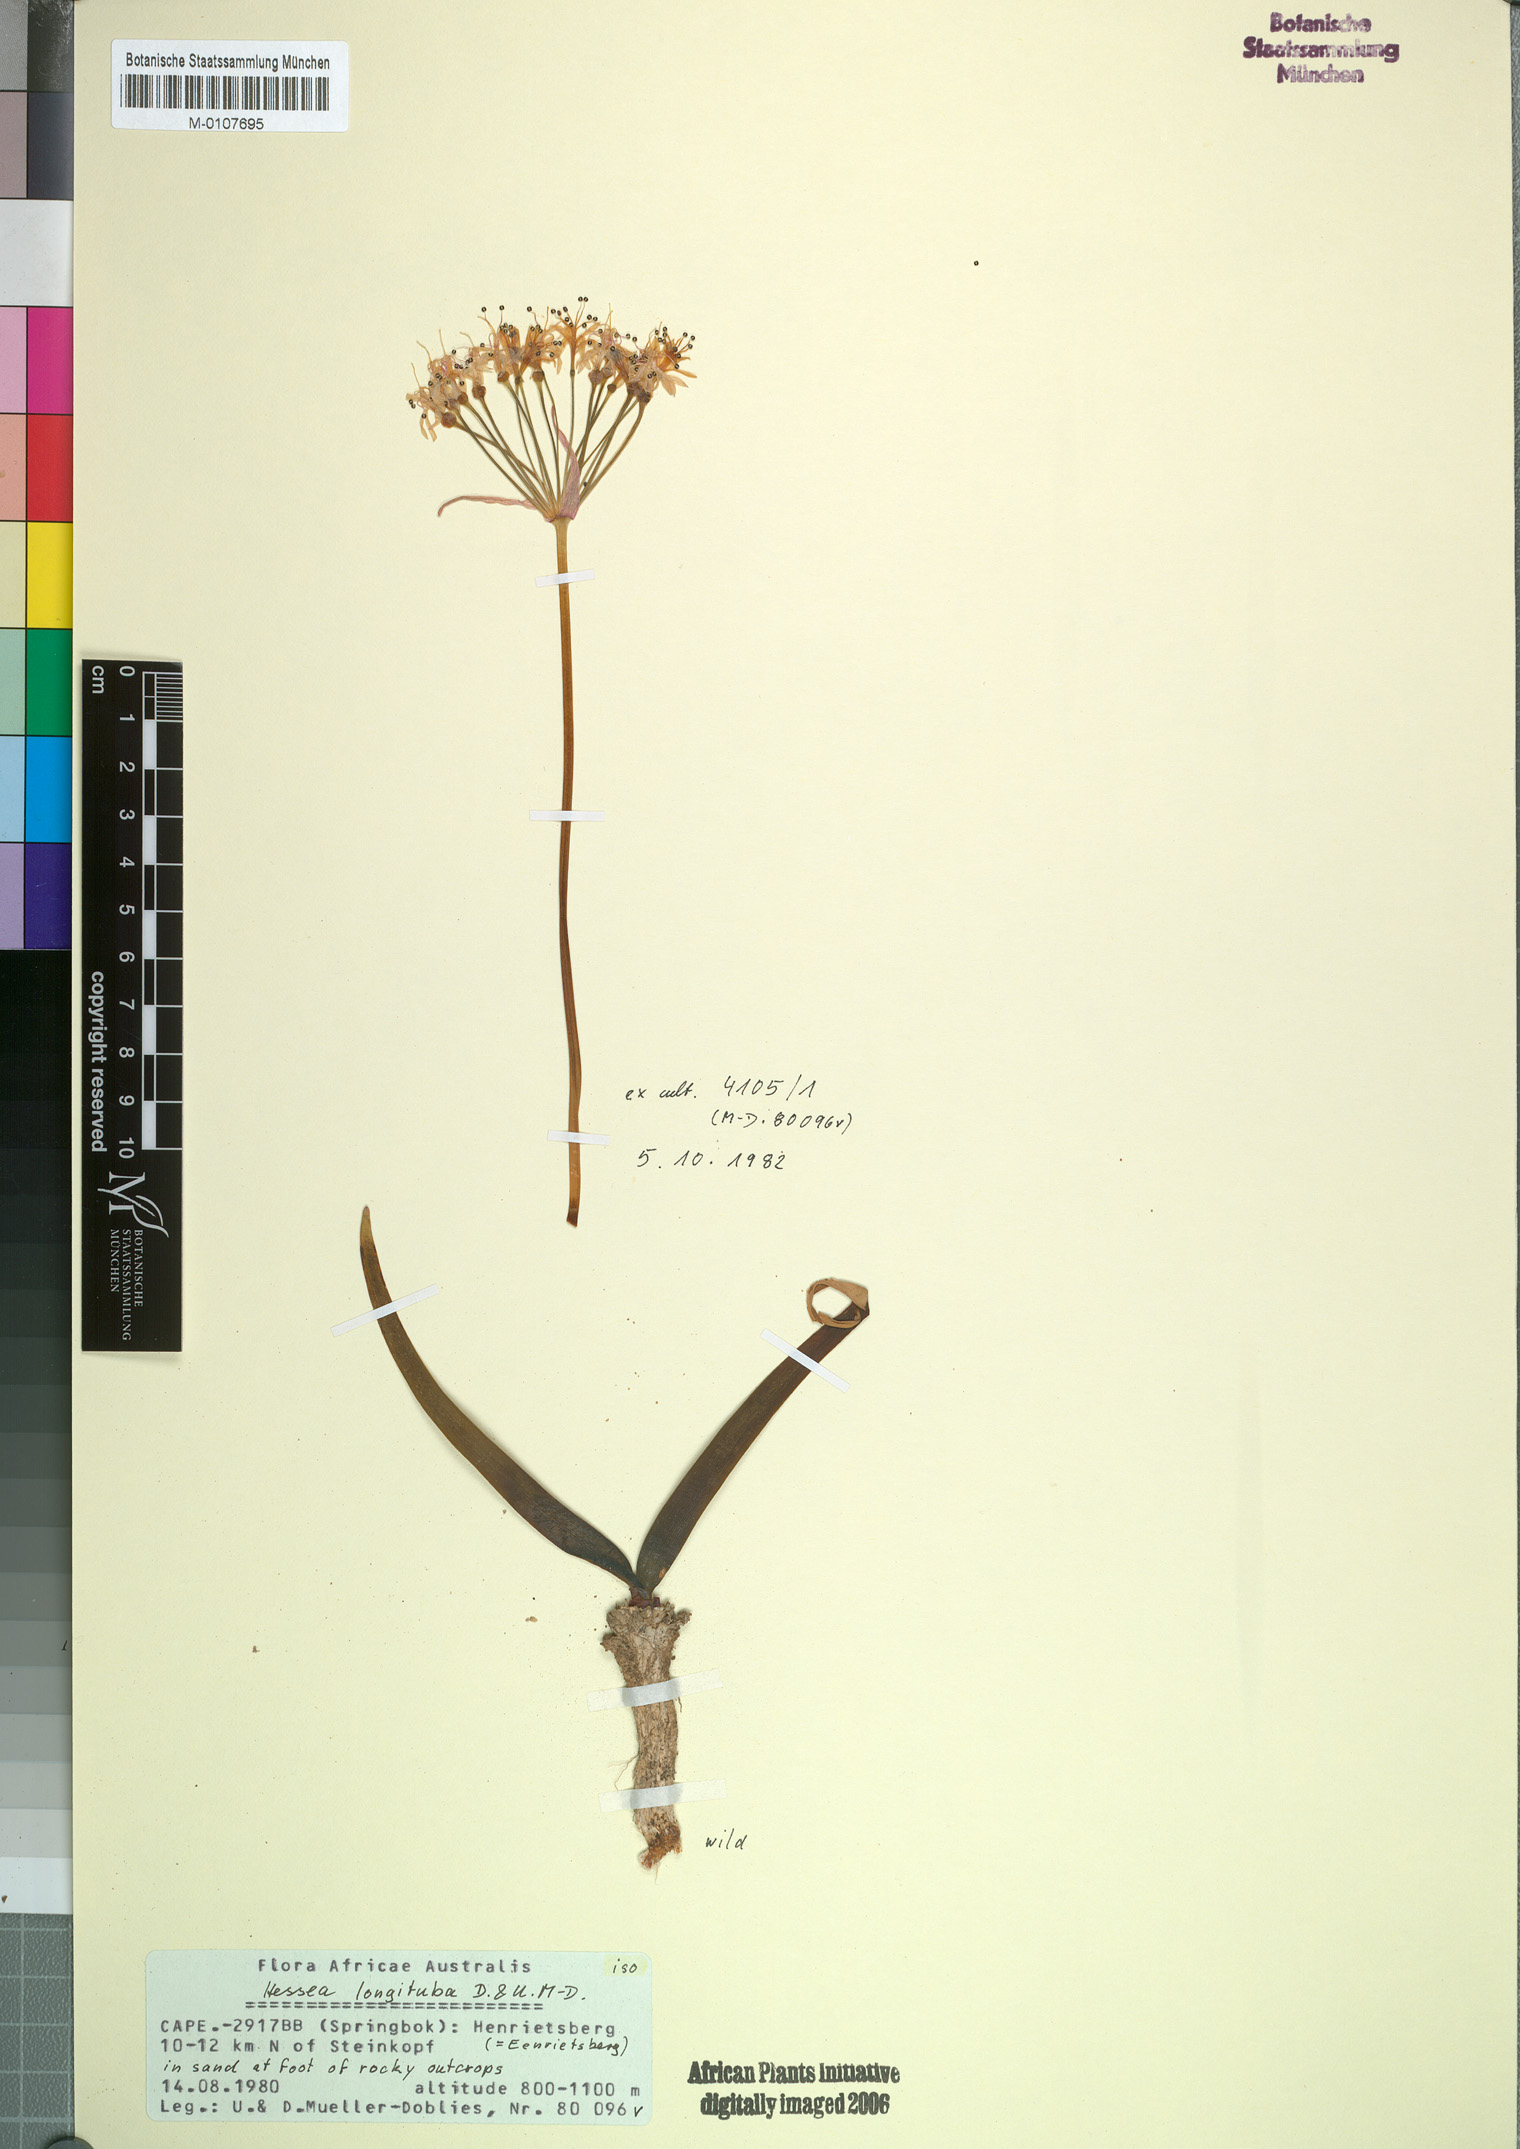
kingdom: Plantae
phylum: Tracheophyta
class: Liliopsida
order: Asparagales
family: Amaryllidaceae
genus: Hessea
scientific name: Hessea breviflora
